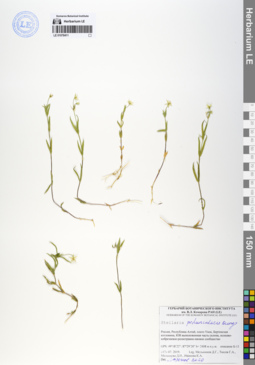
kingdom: Plantae
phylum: Tracheophyta
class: Magnoliopsida
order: Caryophyllales
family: Caryophyllaceae
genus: Stellaria
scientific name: Stellaria peduncularis
